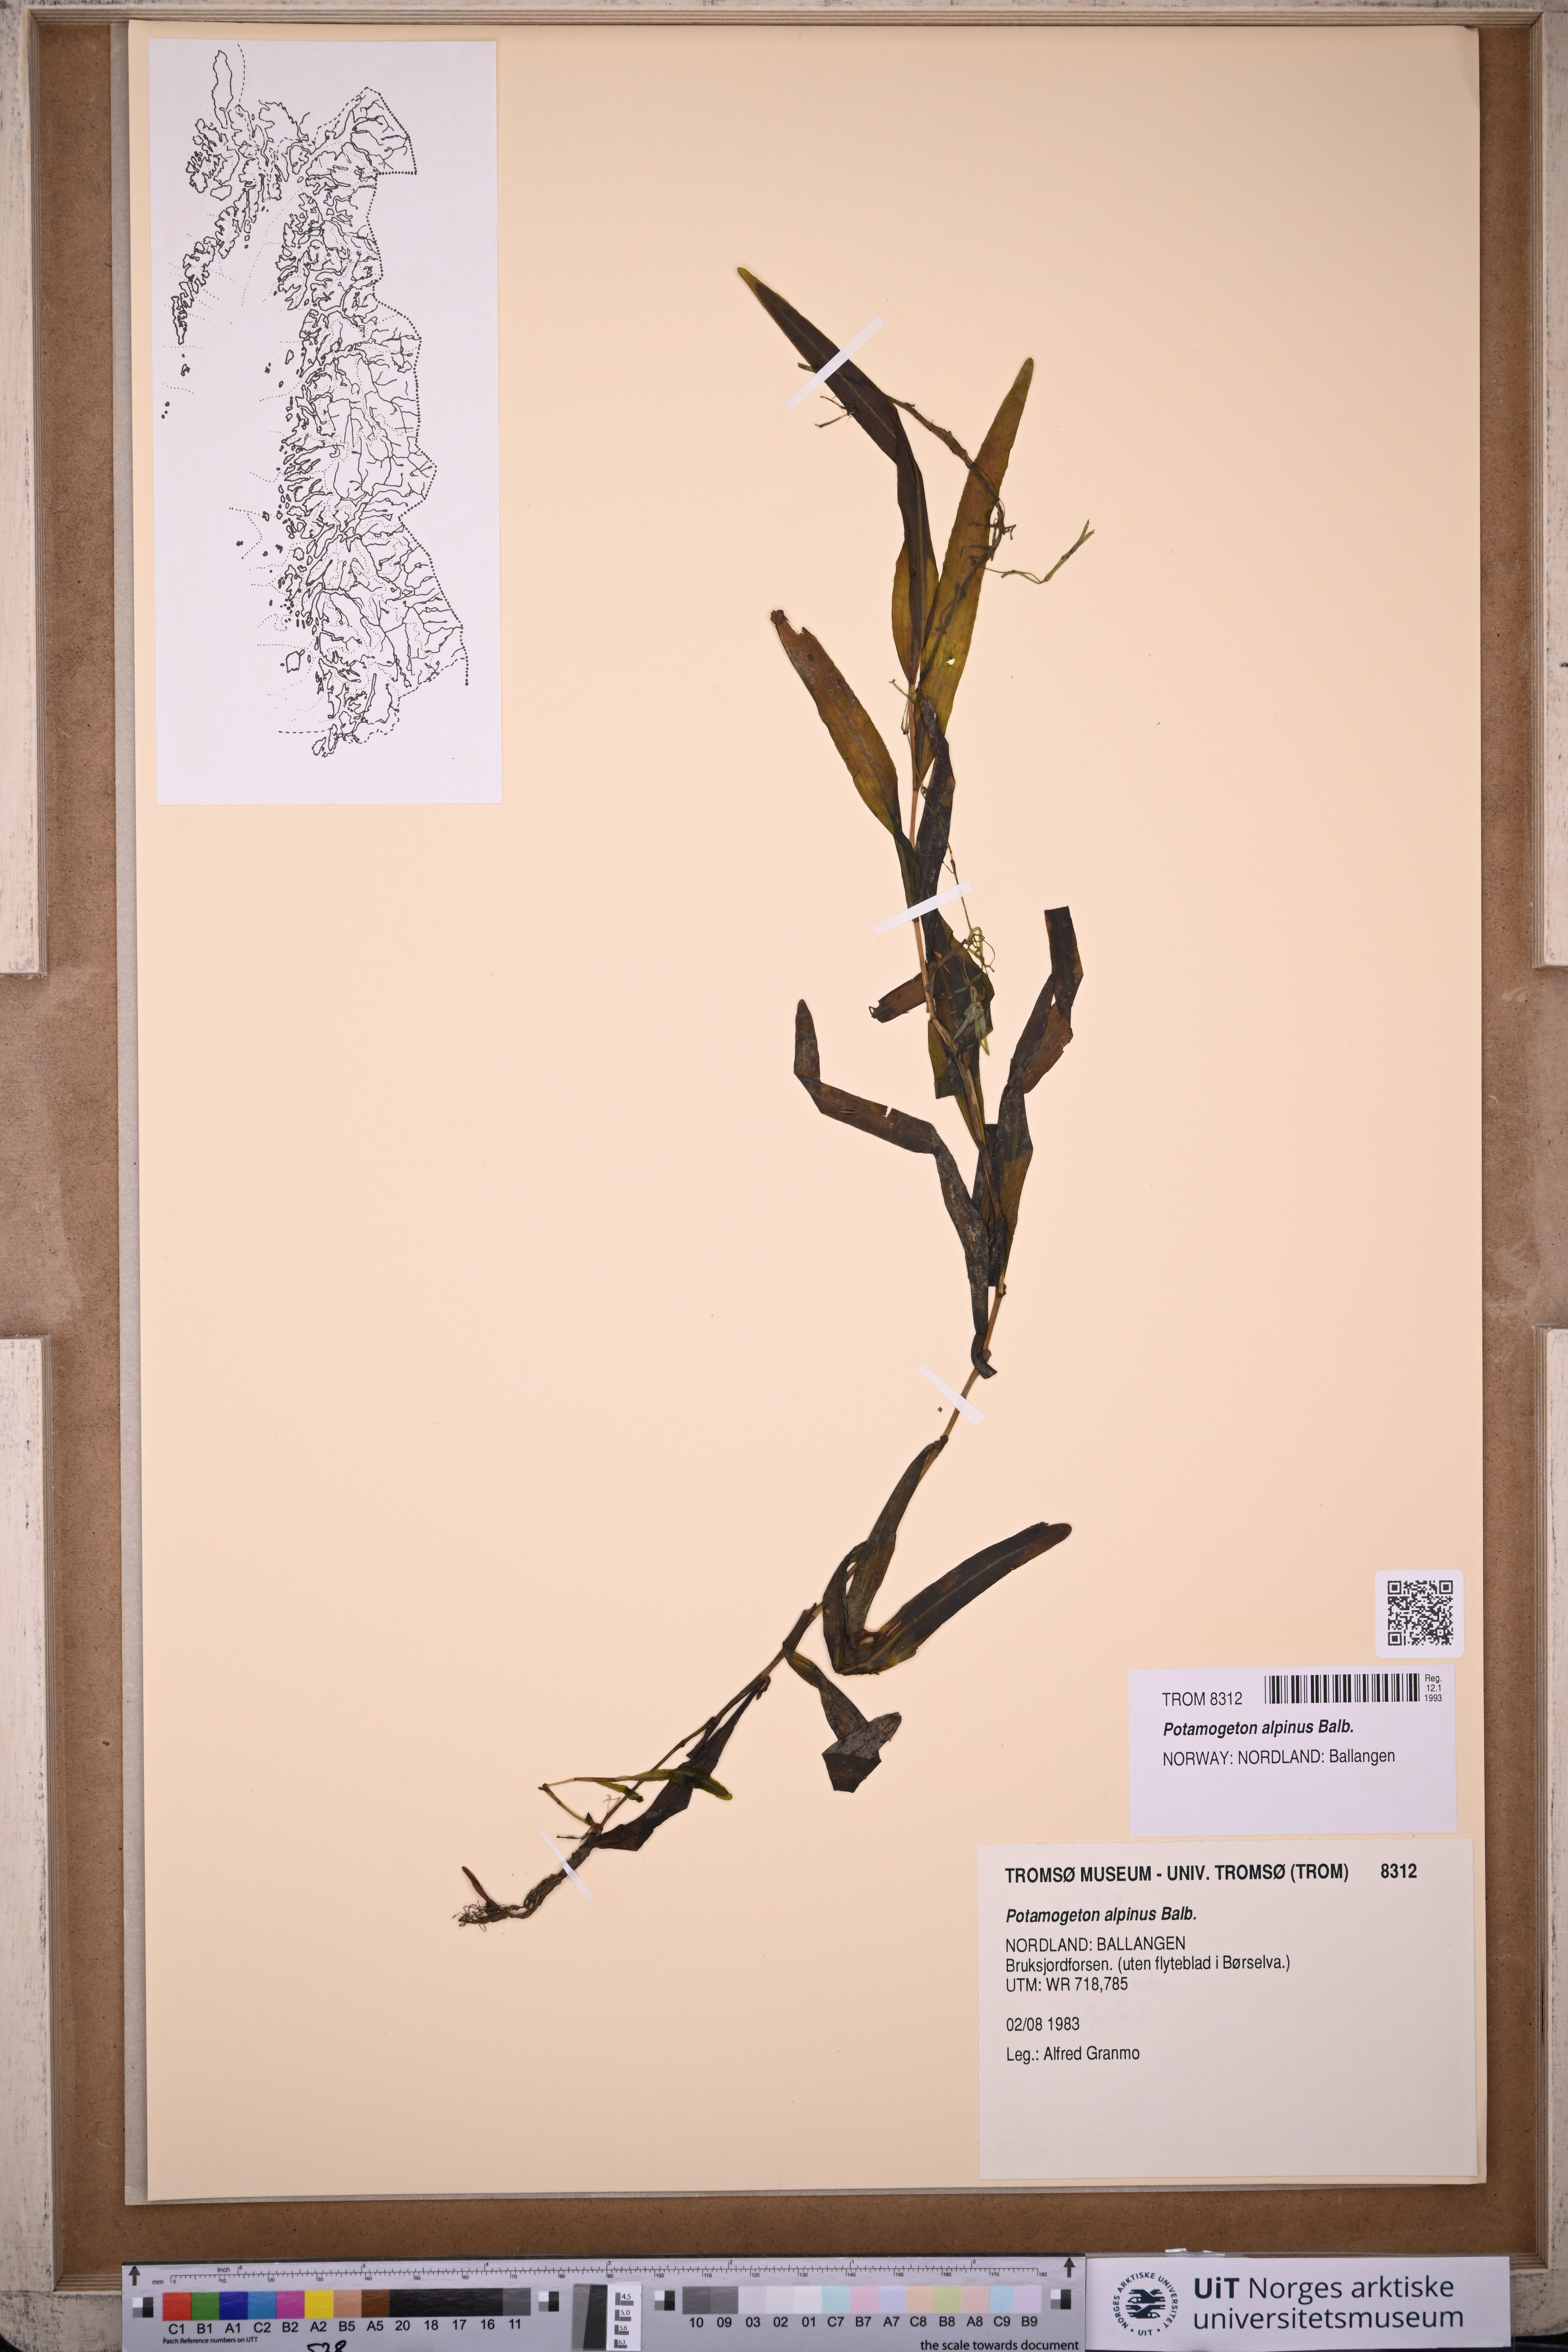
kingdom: Plantae
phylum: Tracheophyta
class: Liliopsida
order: Alismatales
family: Potamogetonaceae
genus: Potamogeton
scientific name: Potamogeton alpinus
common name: Red pondweed
